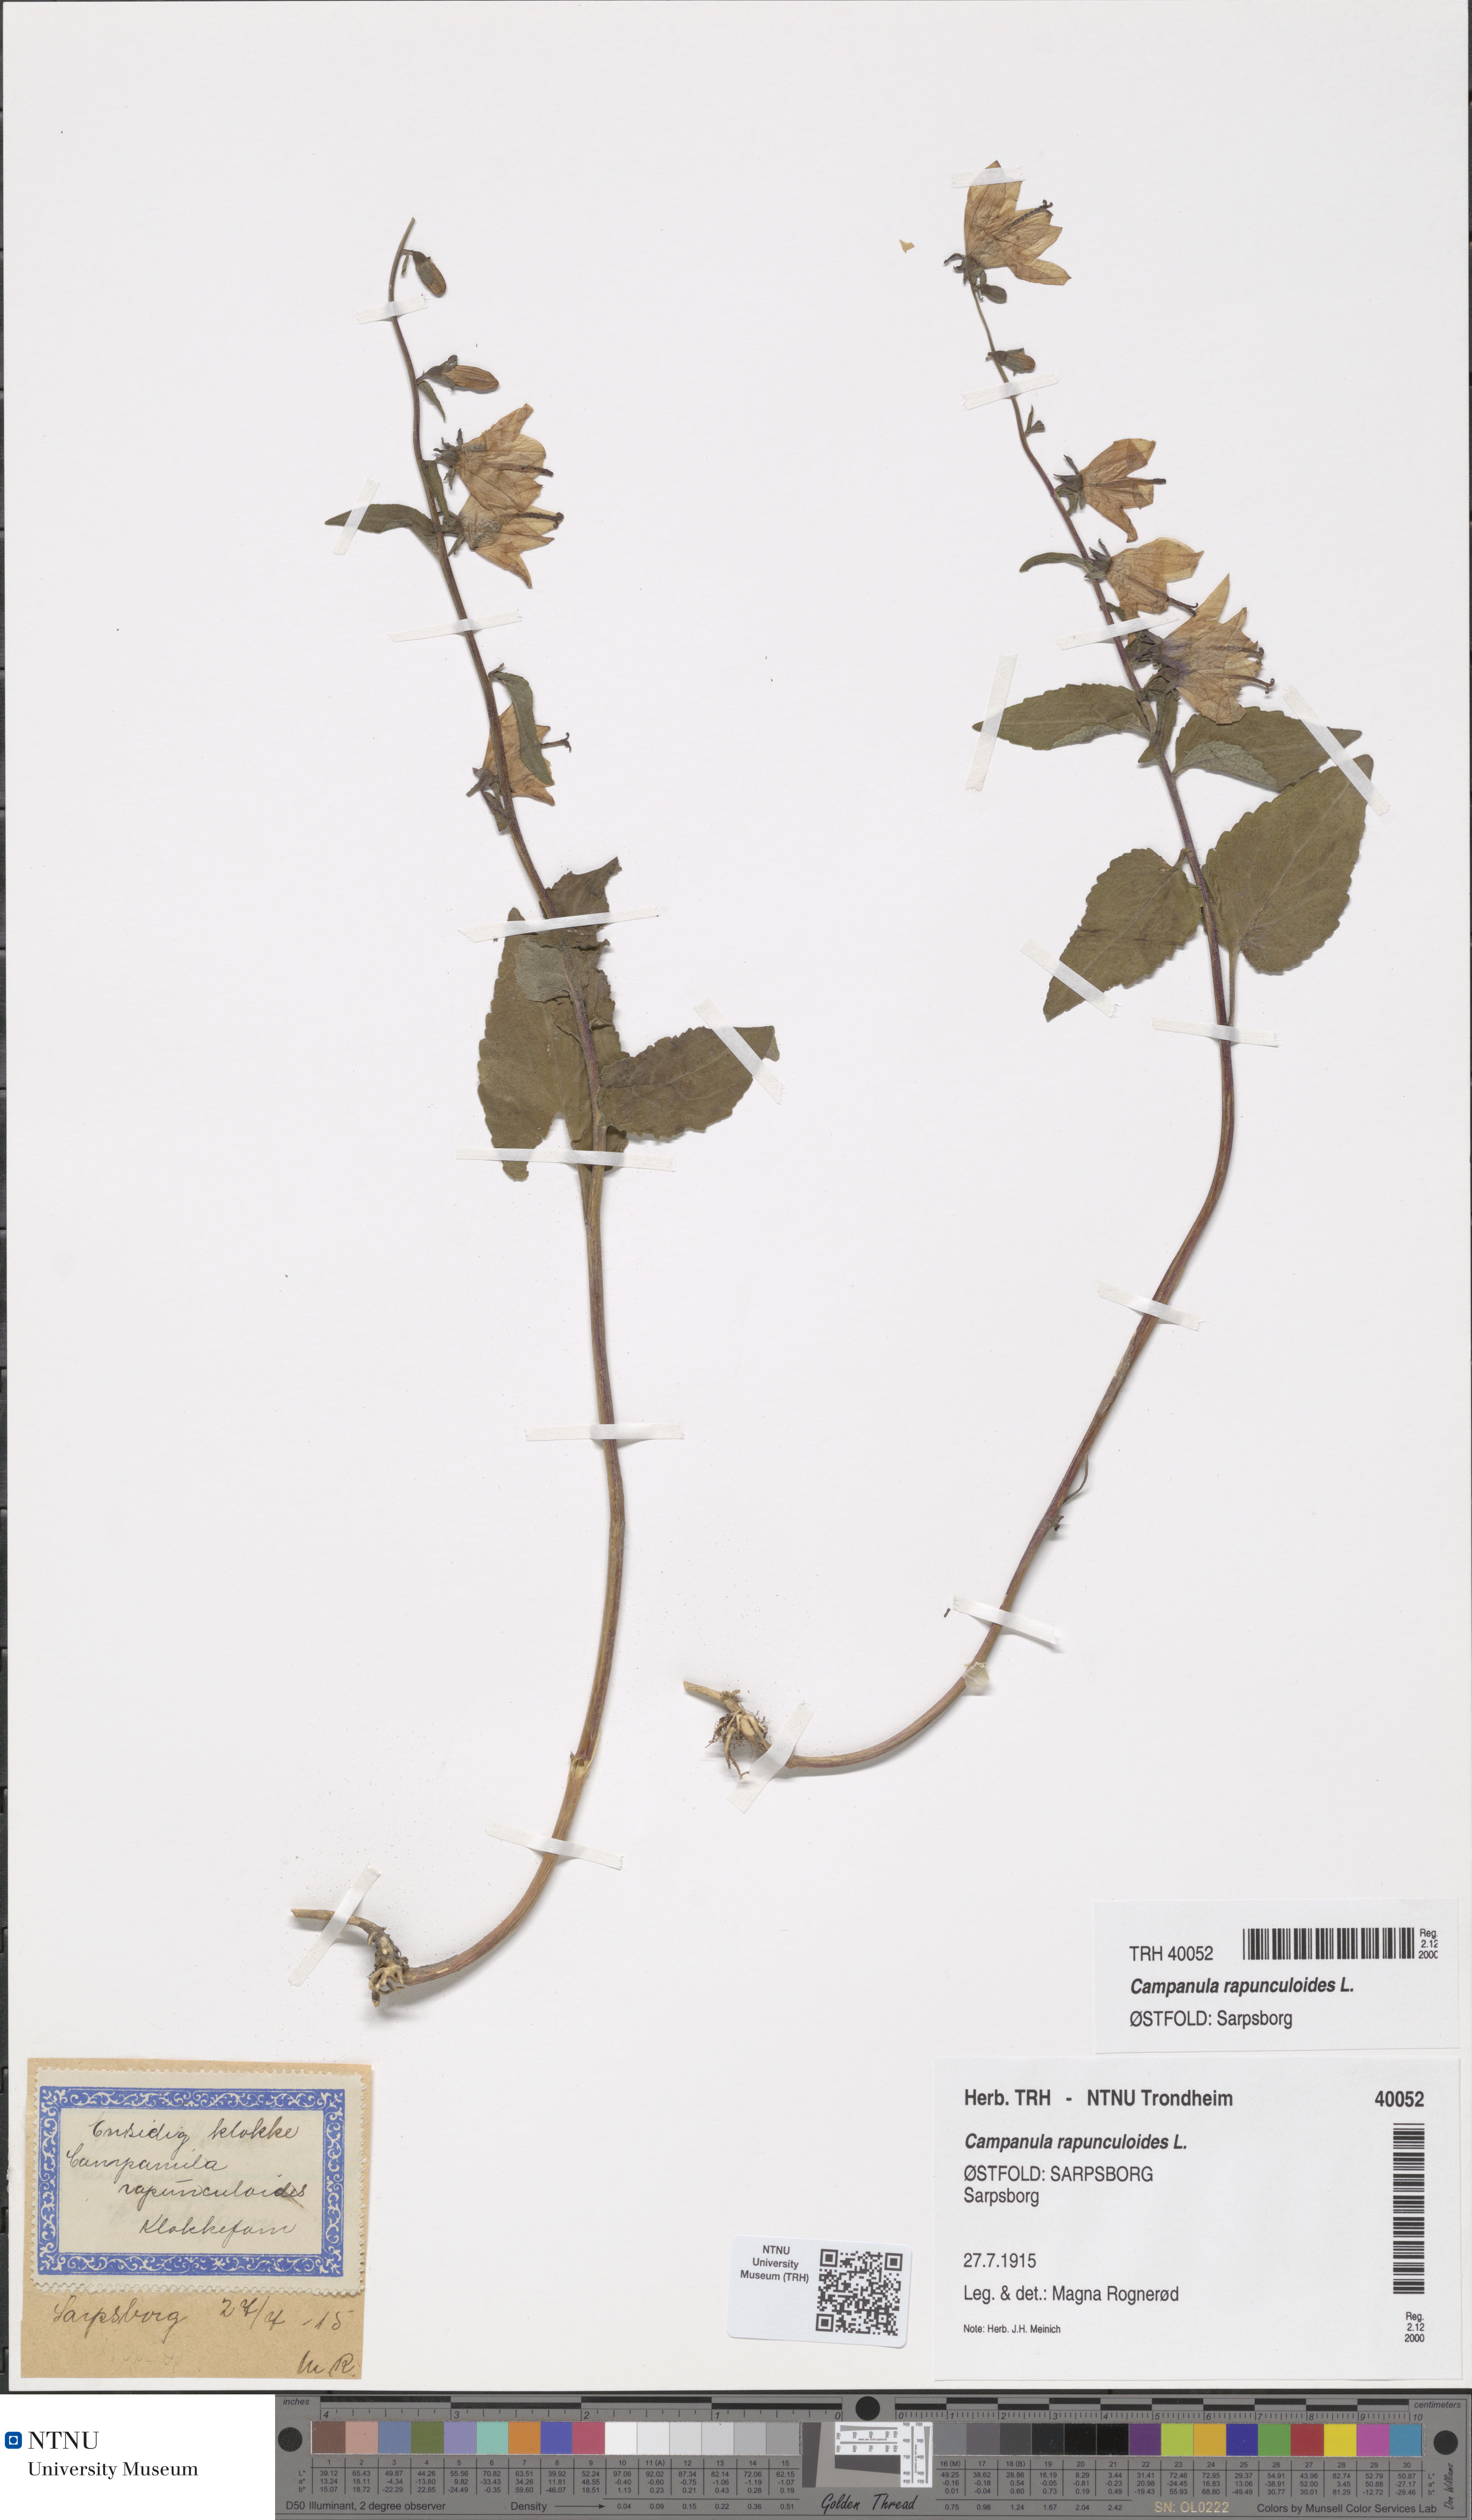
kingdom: Plantae
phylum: Tracheophyta
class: Magnoliopsida
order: Asterales
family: Campanulaceae
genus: Campanula
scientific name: Campanula rapunculoides
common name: Creeping bellflower
